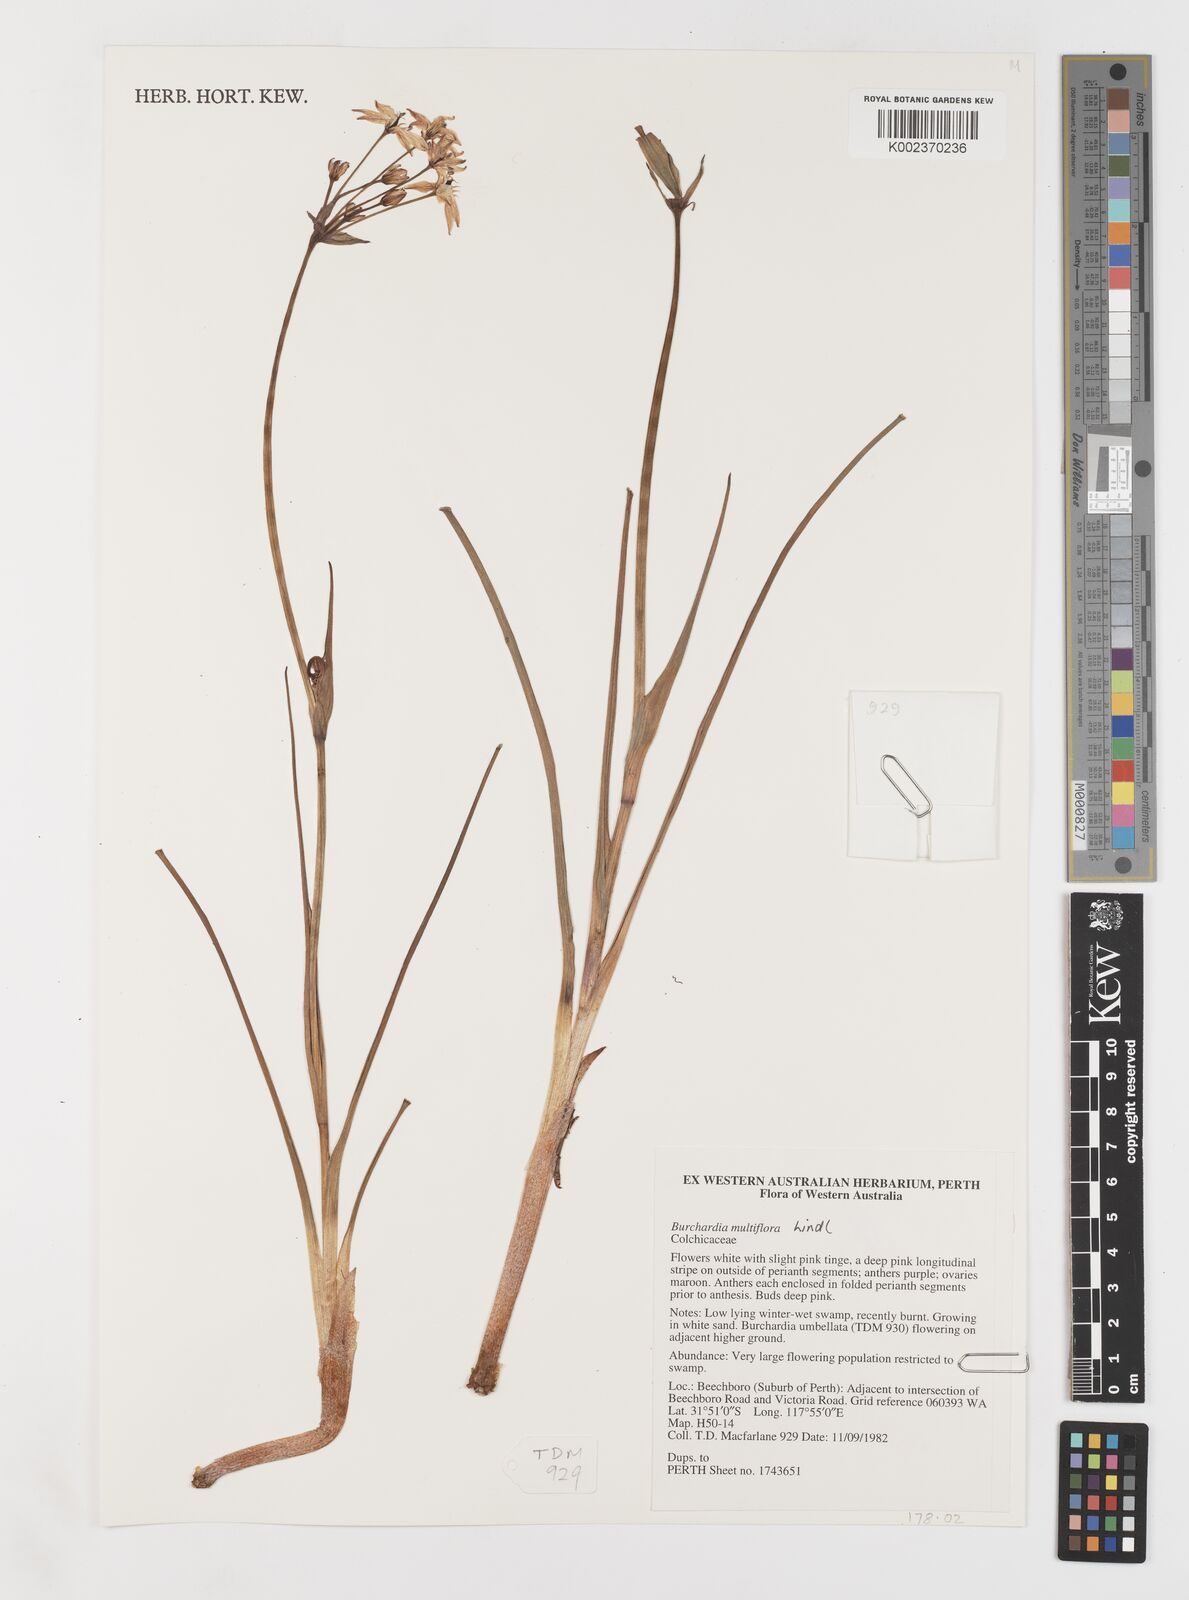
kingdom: Plantae
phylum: Tracheophyta
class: Liliopsida
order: Liliales
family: Colchicaceae
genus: Burchardia
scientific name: Burchardia multiflora
